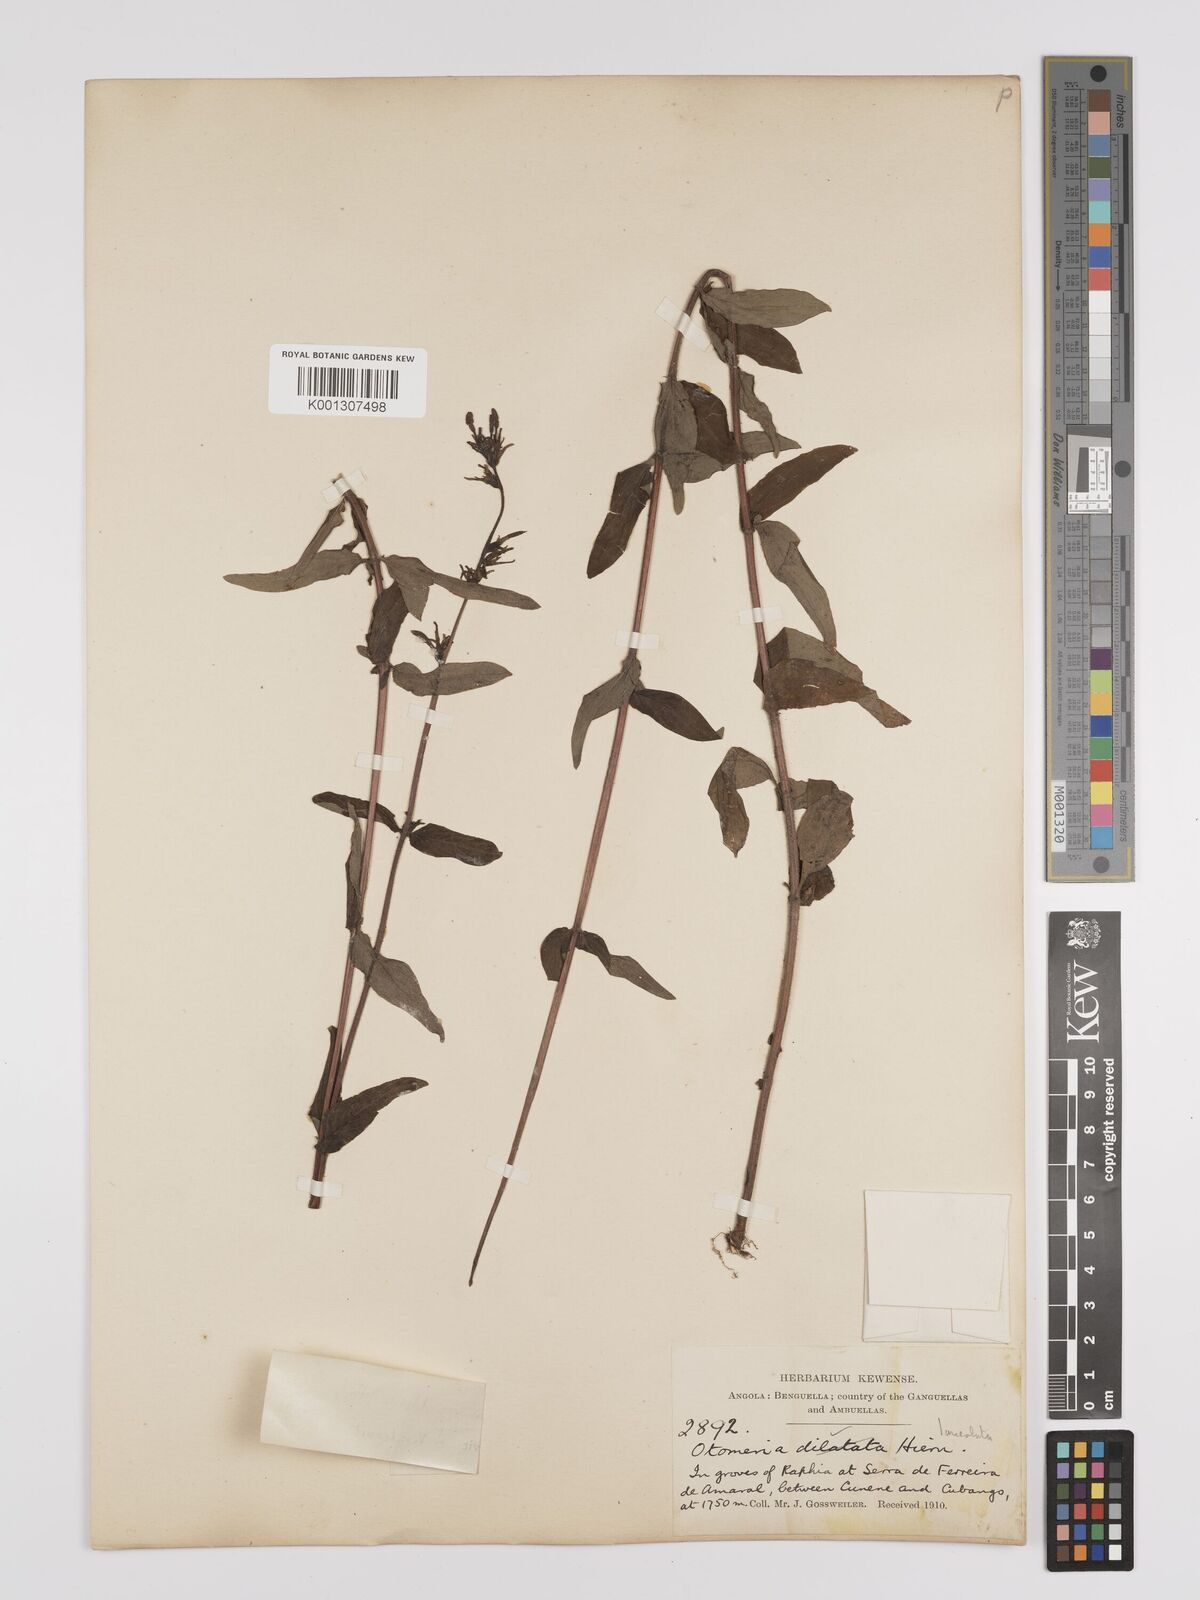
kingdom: Plantae
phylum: Tracheophyta
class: Magnoliopsida
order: Gentianales
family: Rubiaceae
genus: Otomeria
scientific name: Otomeria elatior
